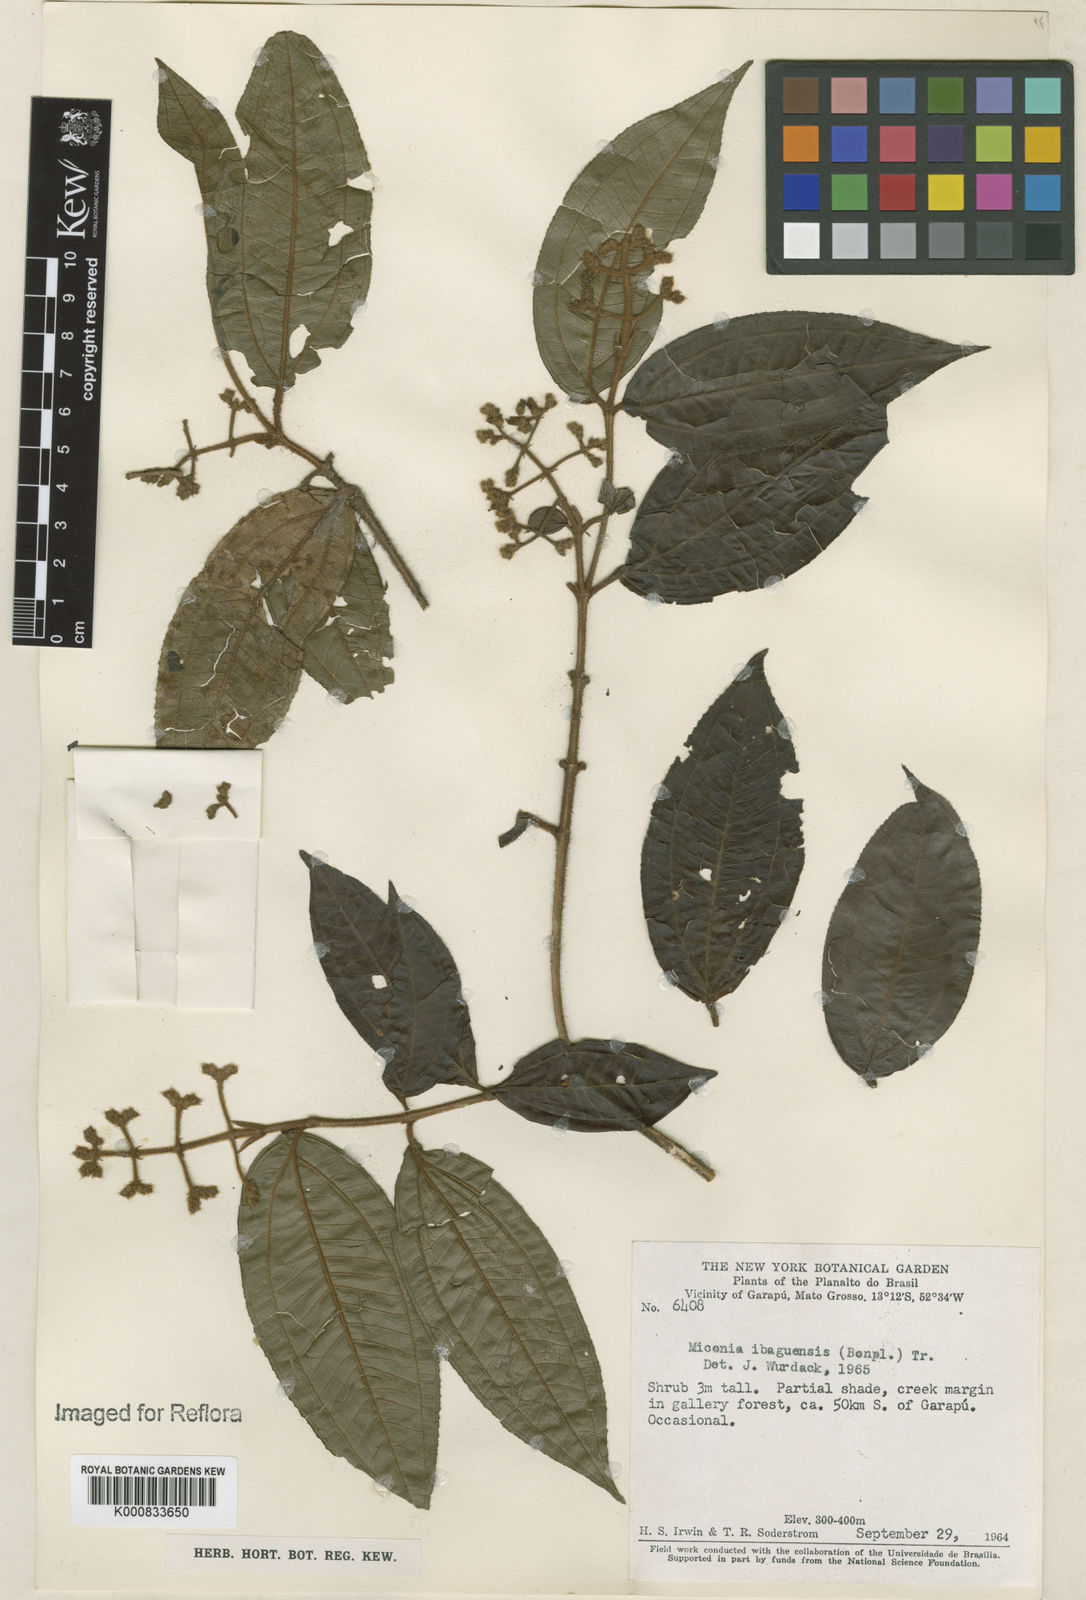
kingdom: Plantae
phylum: Tracheophyta
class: Magnoliopsida
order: Myrtales
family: Melastomataceae
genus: Miconia
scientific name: Miconia ibaguensis
